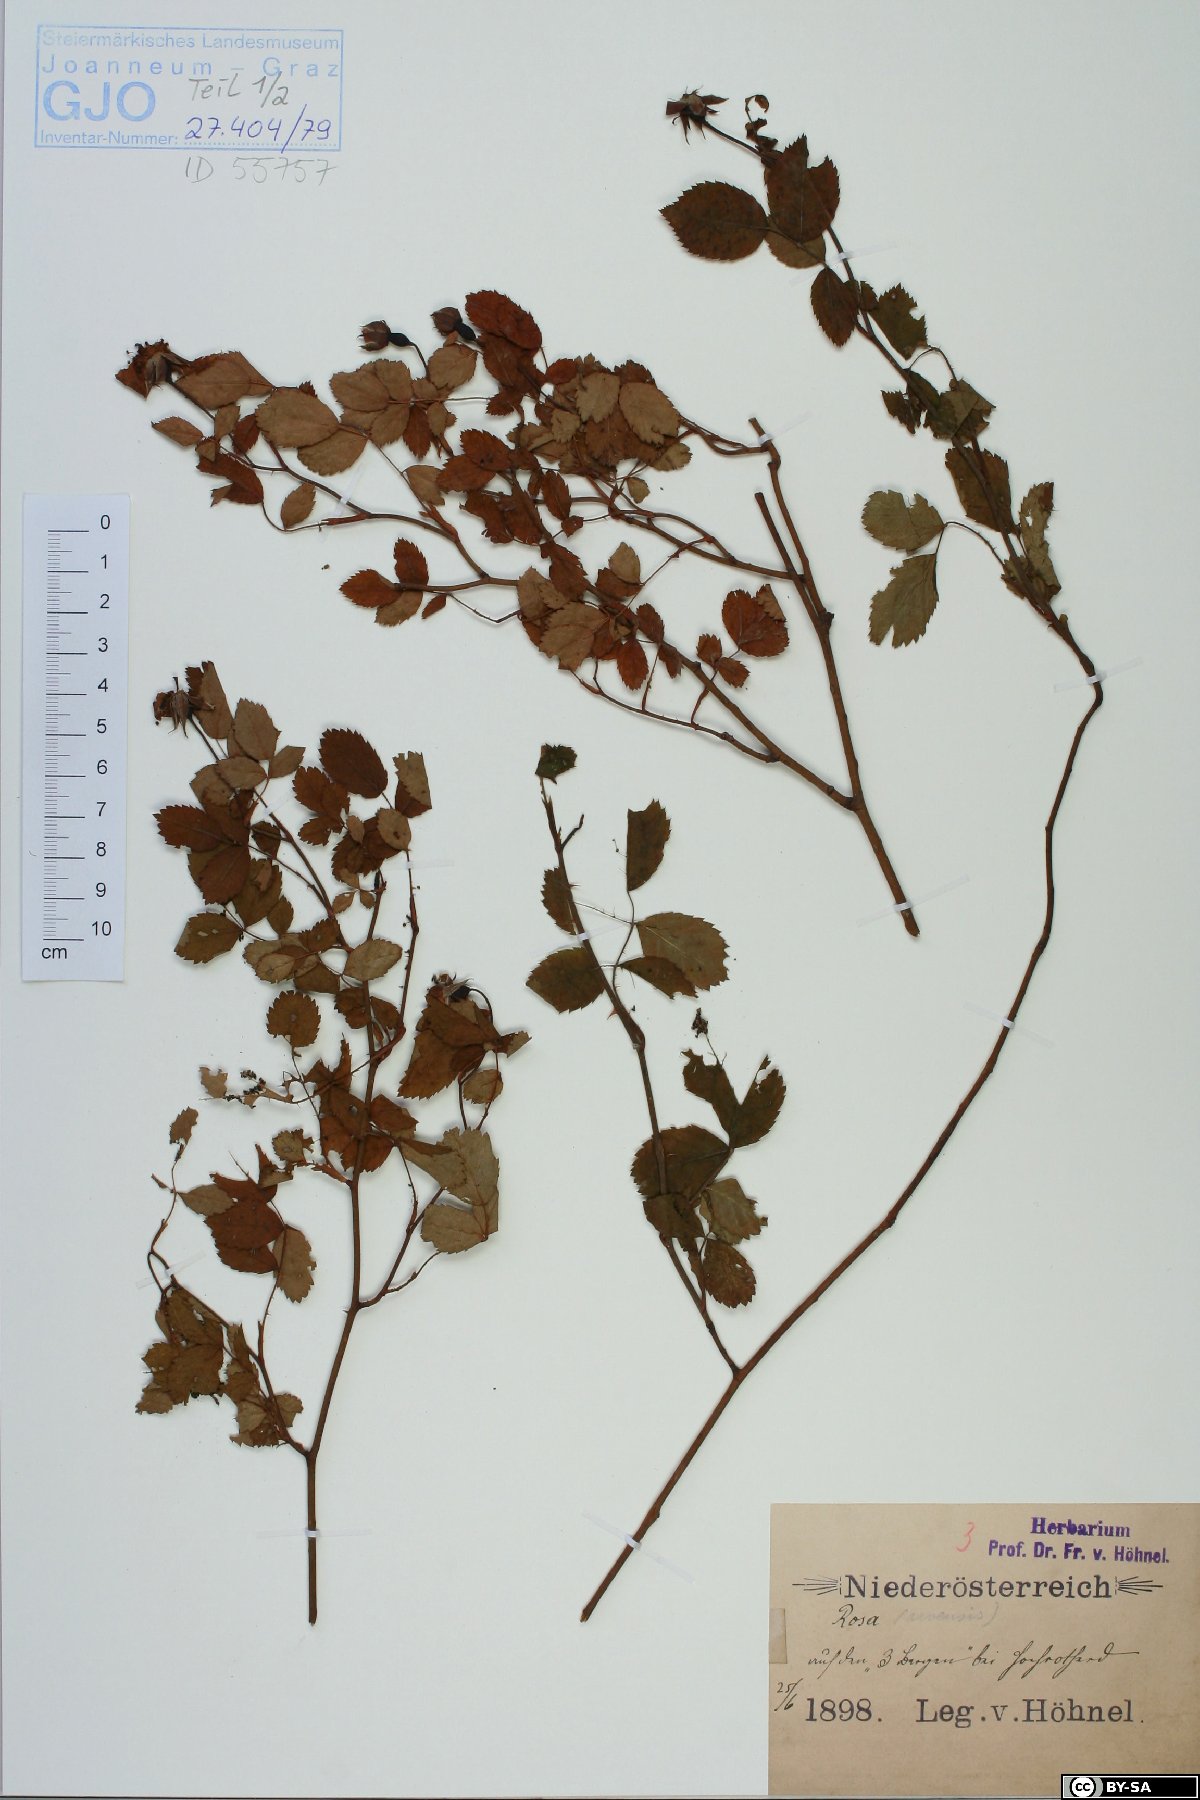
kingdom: Plantae
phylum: Tracheophyta
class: Magnoliopsida
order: Rosales
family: Rosaceae
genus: Rosa
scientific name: Rosa arvensis
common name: Field rose
